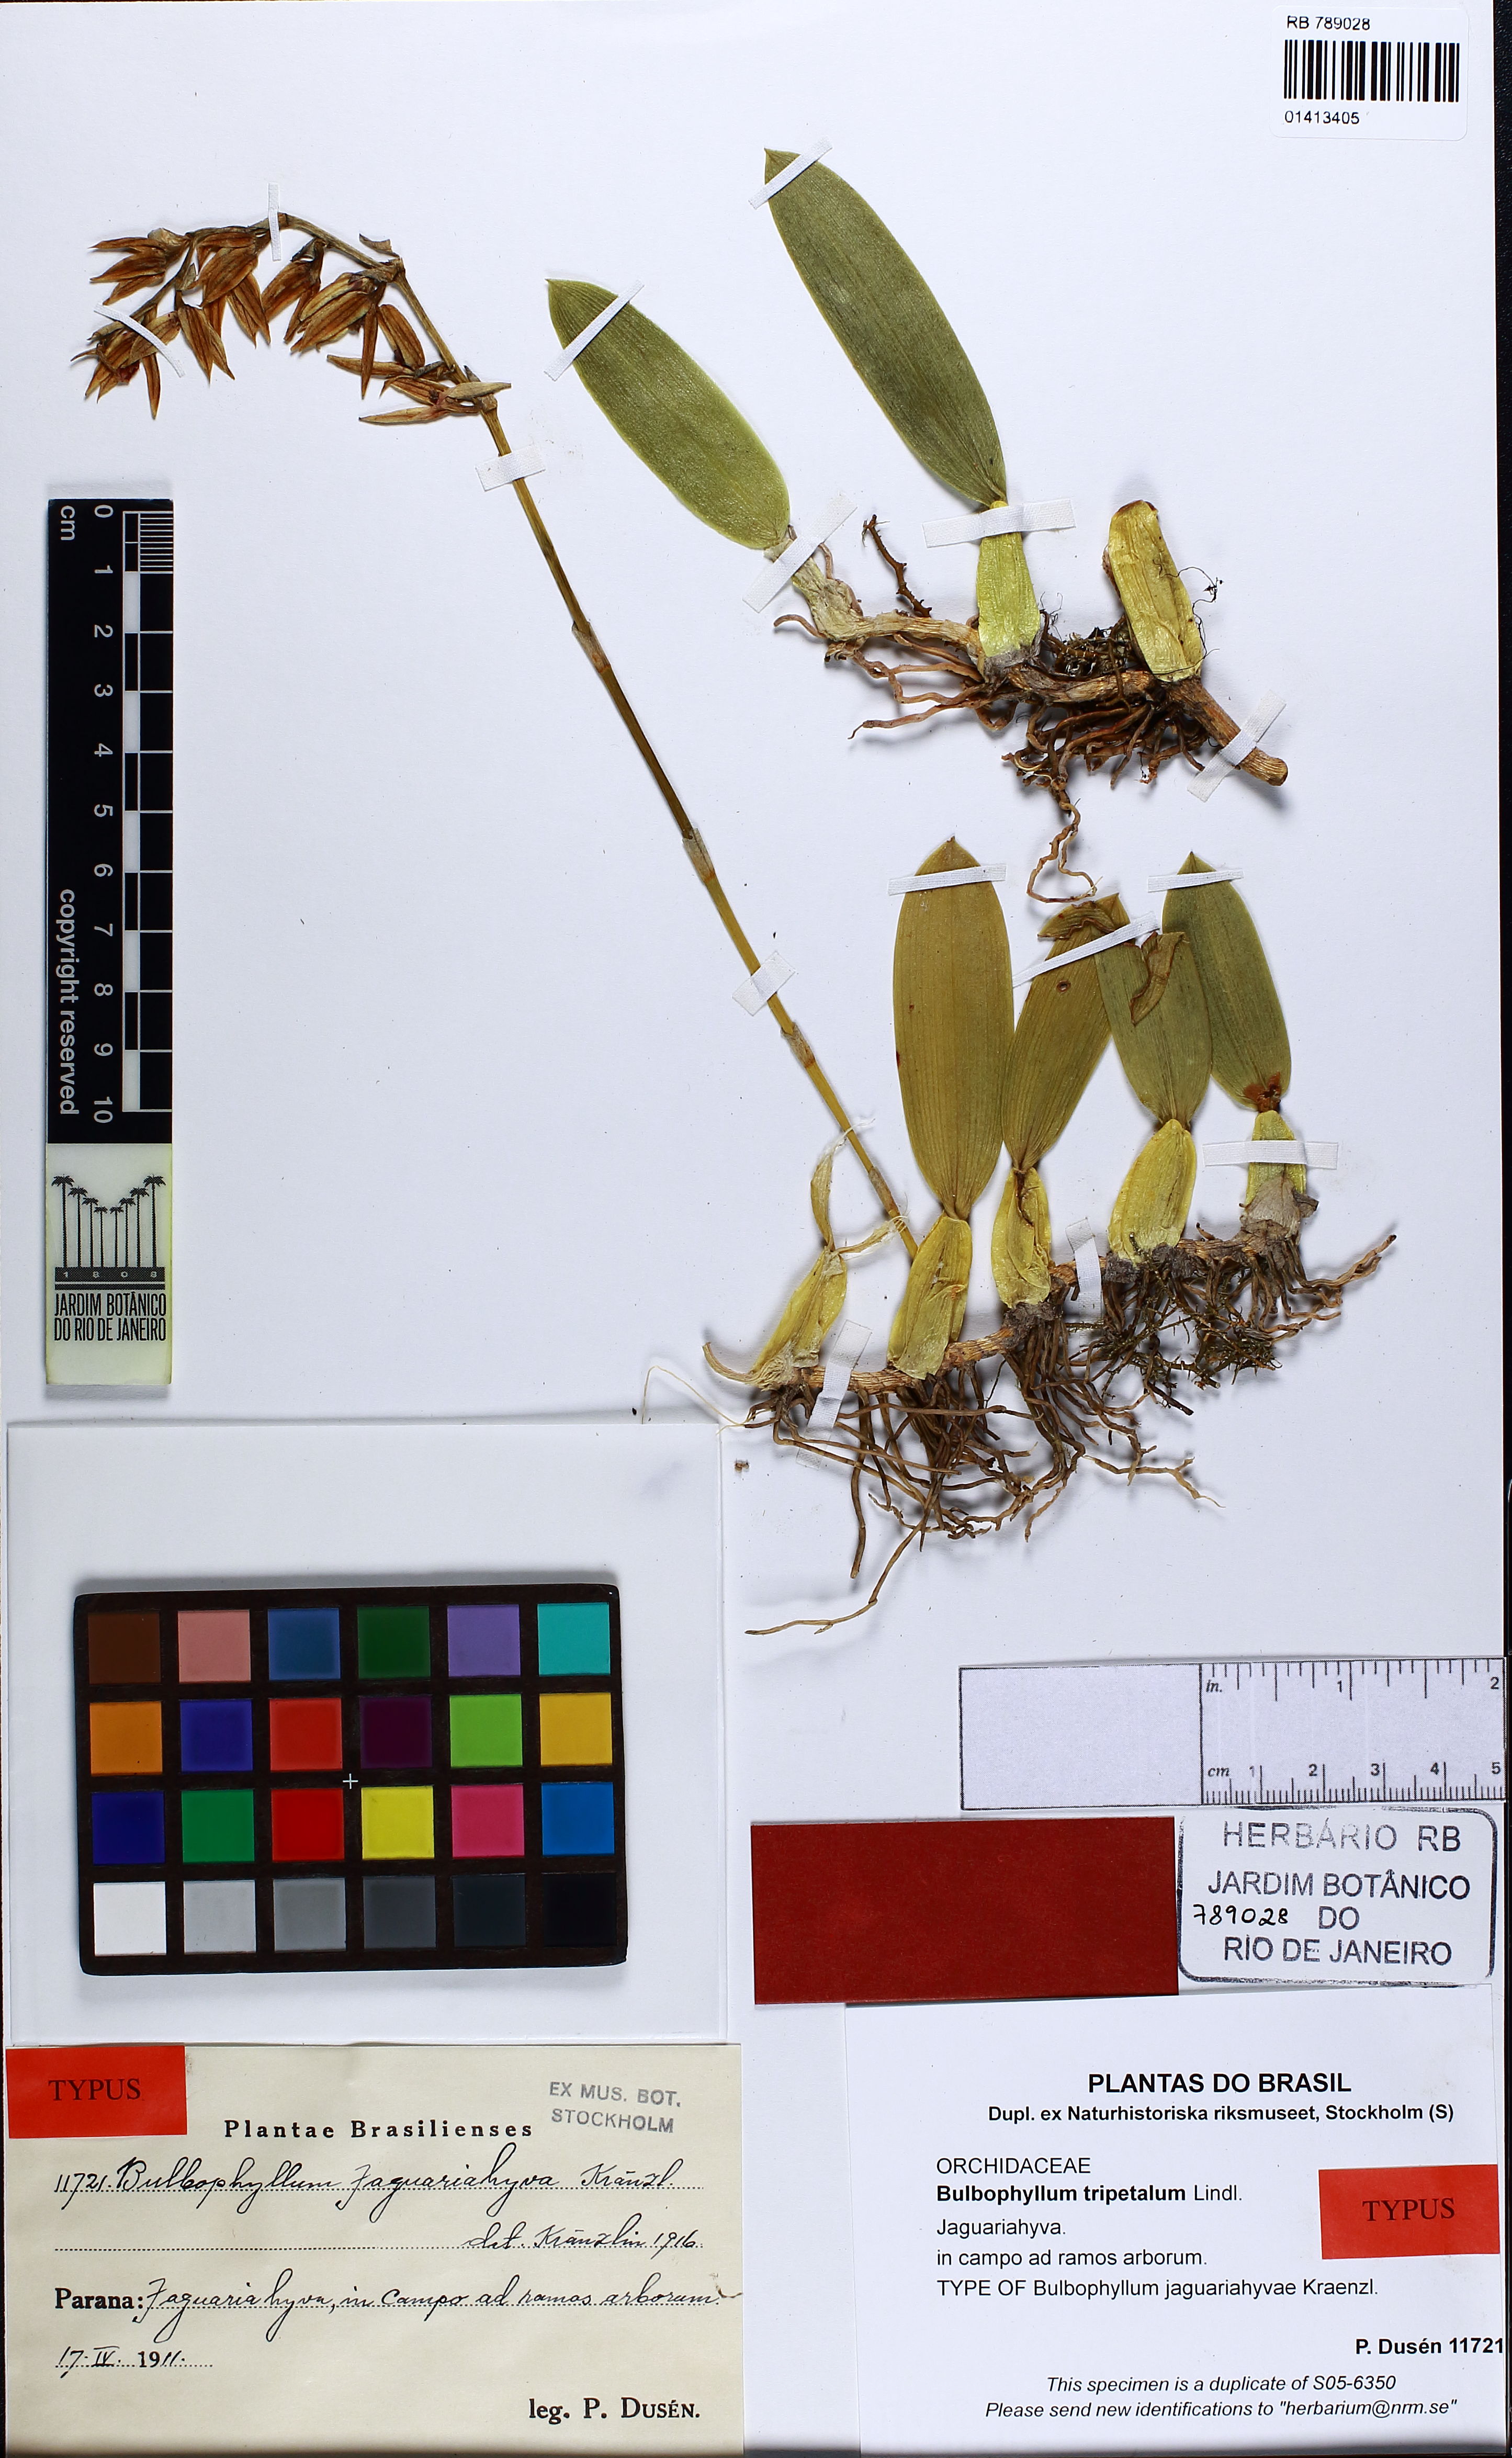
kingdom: Plantae
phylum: Tracheophyta
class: Liliopsida
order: Asparagales
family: Orchidaceae
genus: Bulbophyllum
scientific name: Bulbophyllum tripetalum
